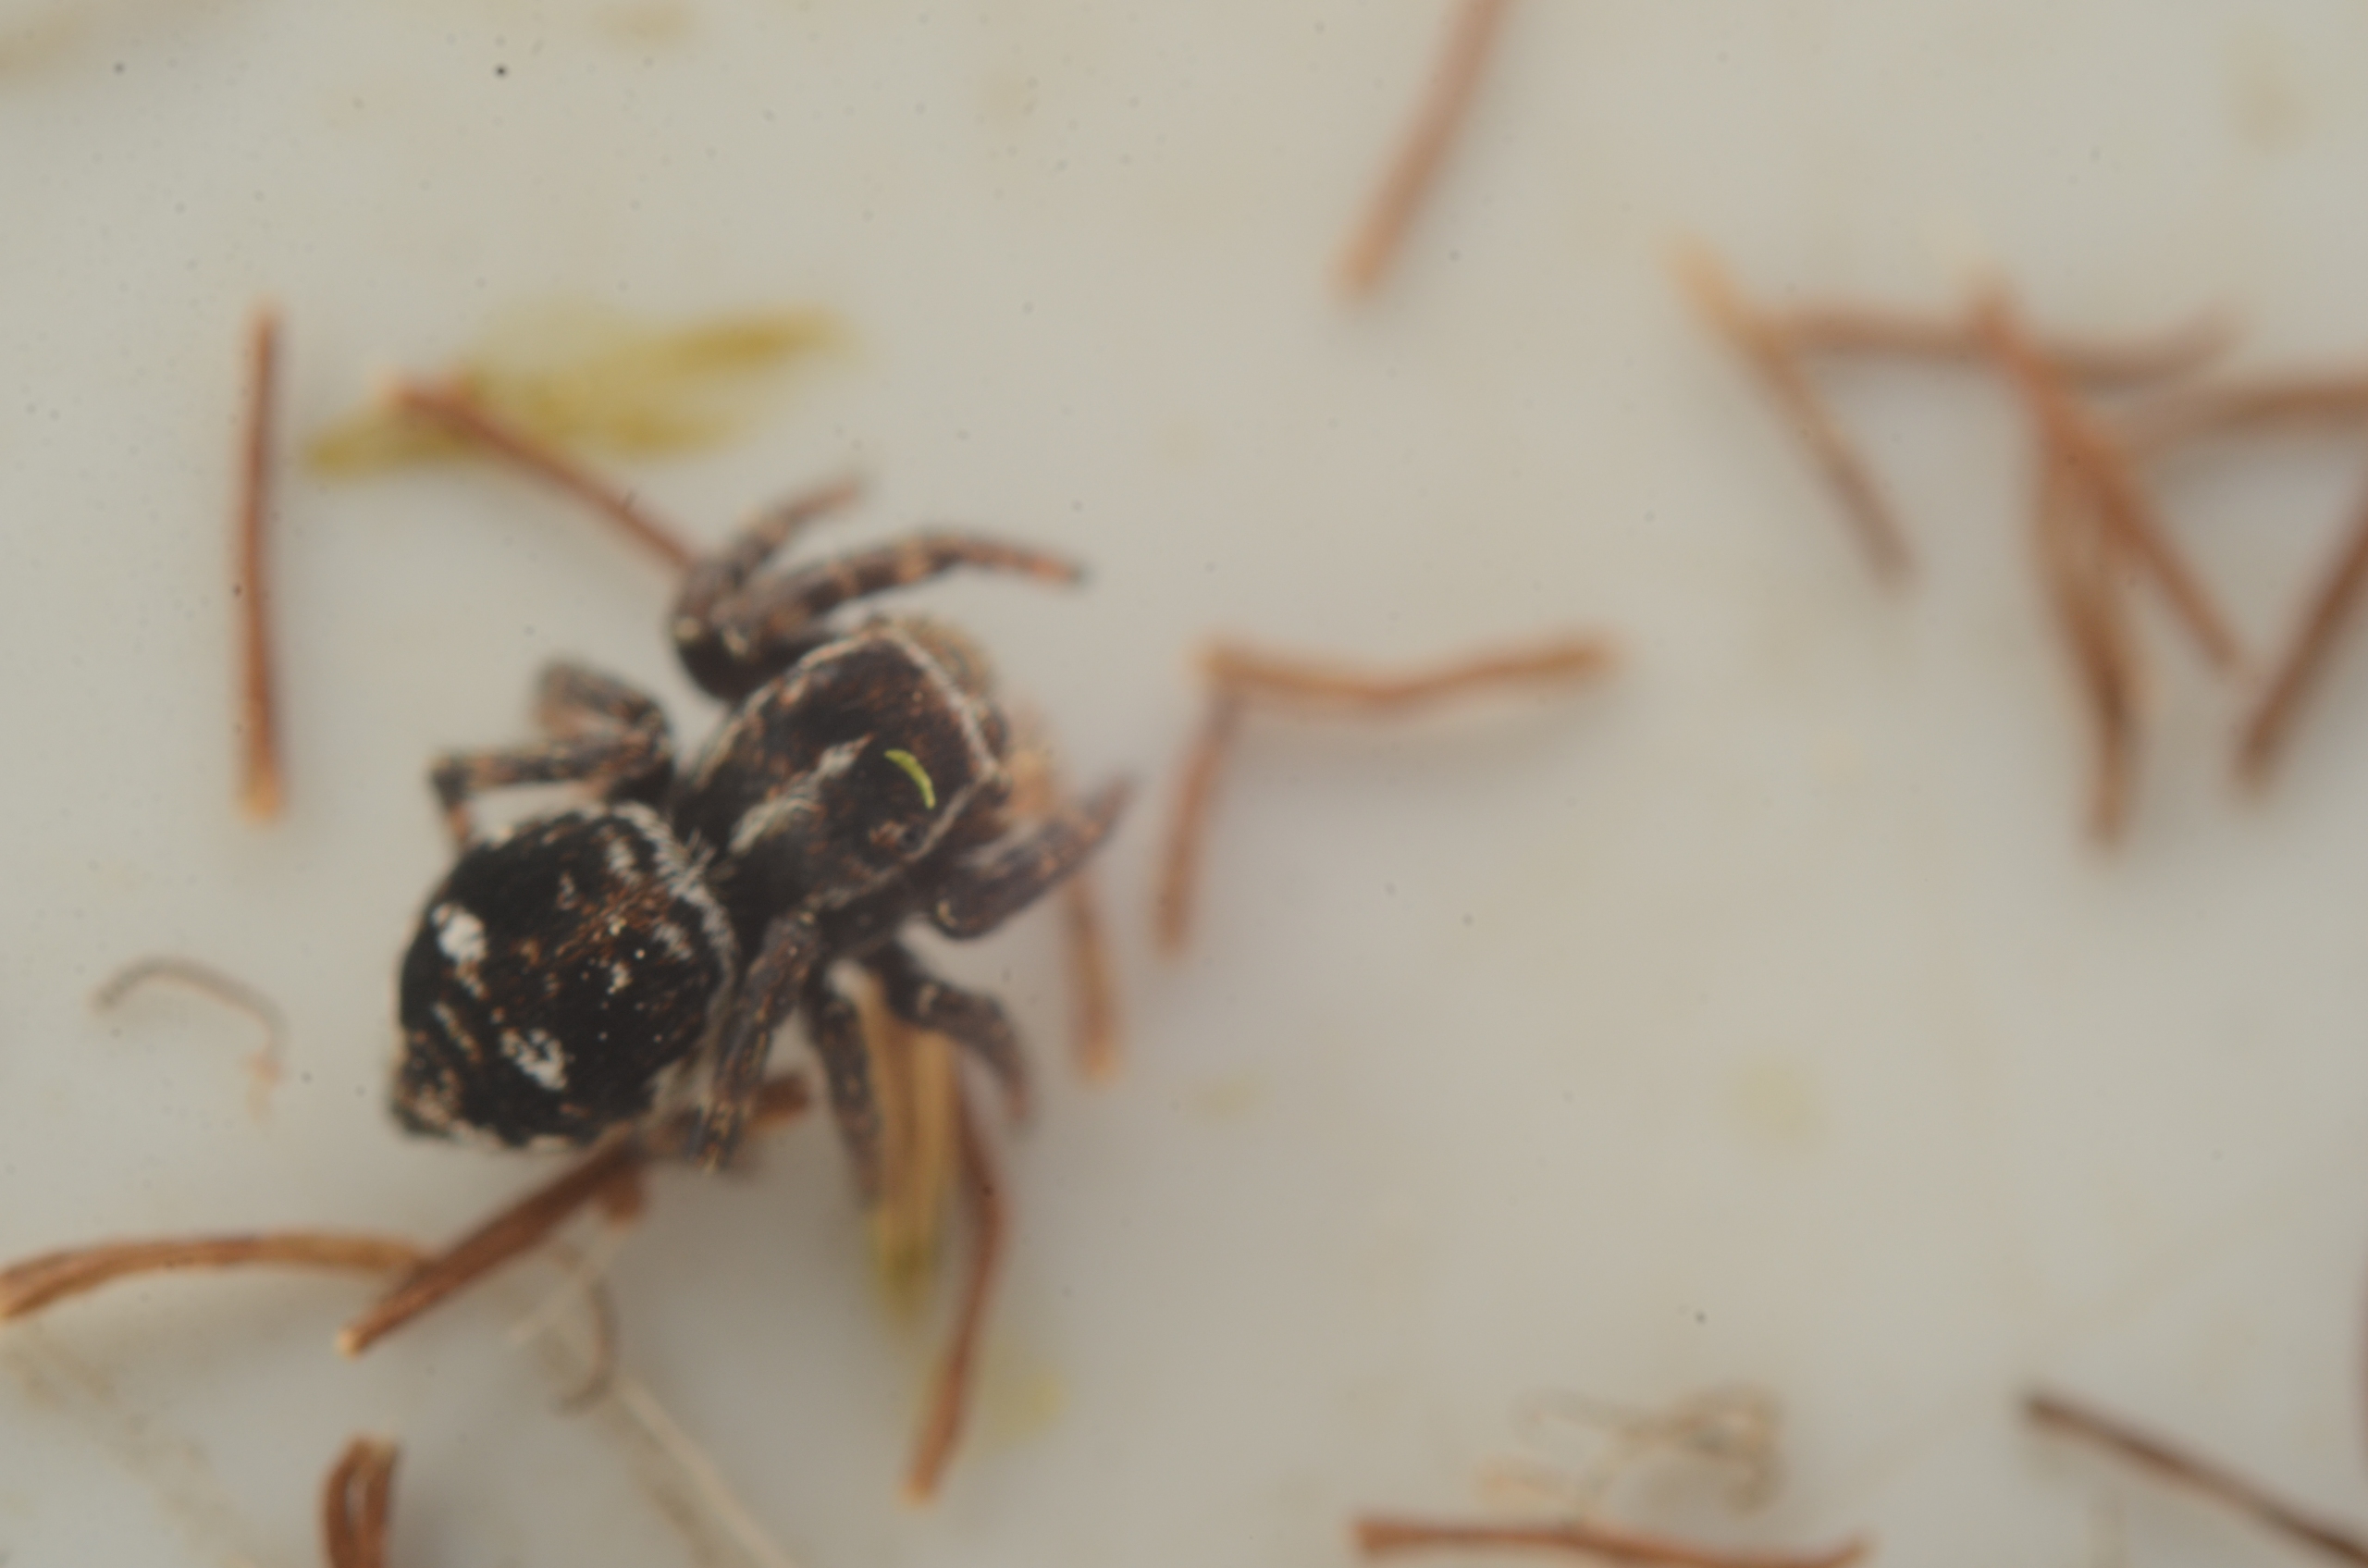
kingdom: Animalia
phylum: Arthropoda
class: Arachnida
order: Araneae
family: Salticidae
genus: Attulus
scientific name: Attulus floricola
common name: Mosespringer
